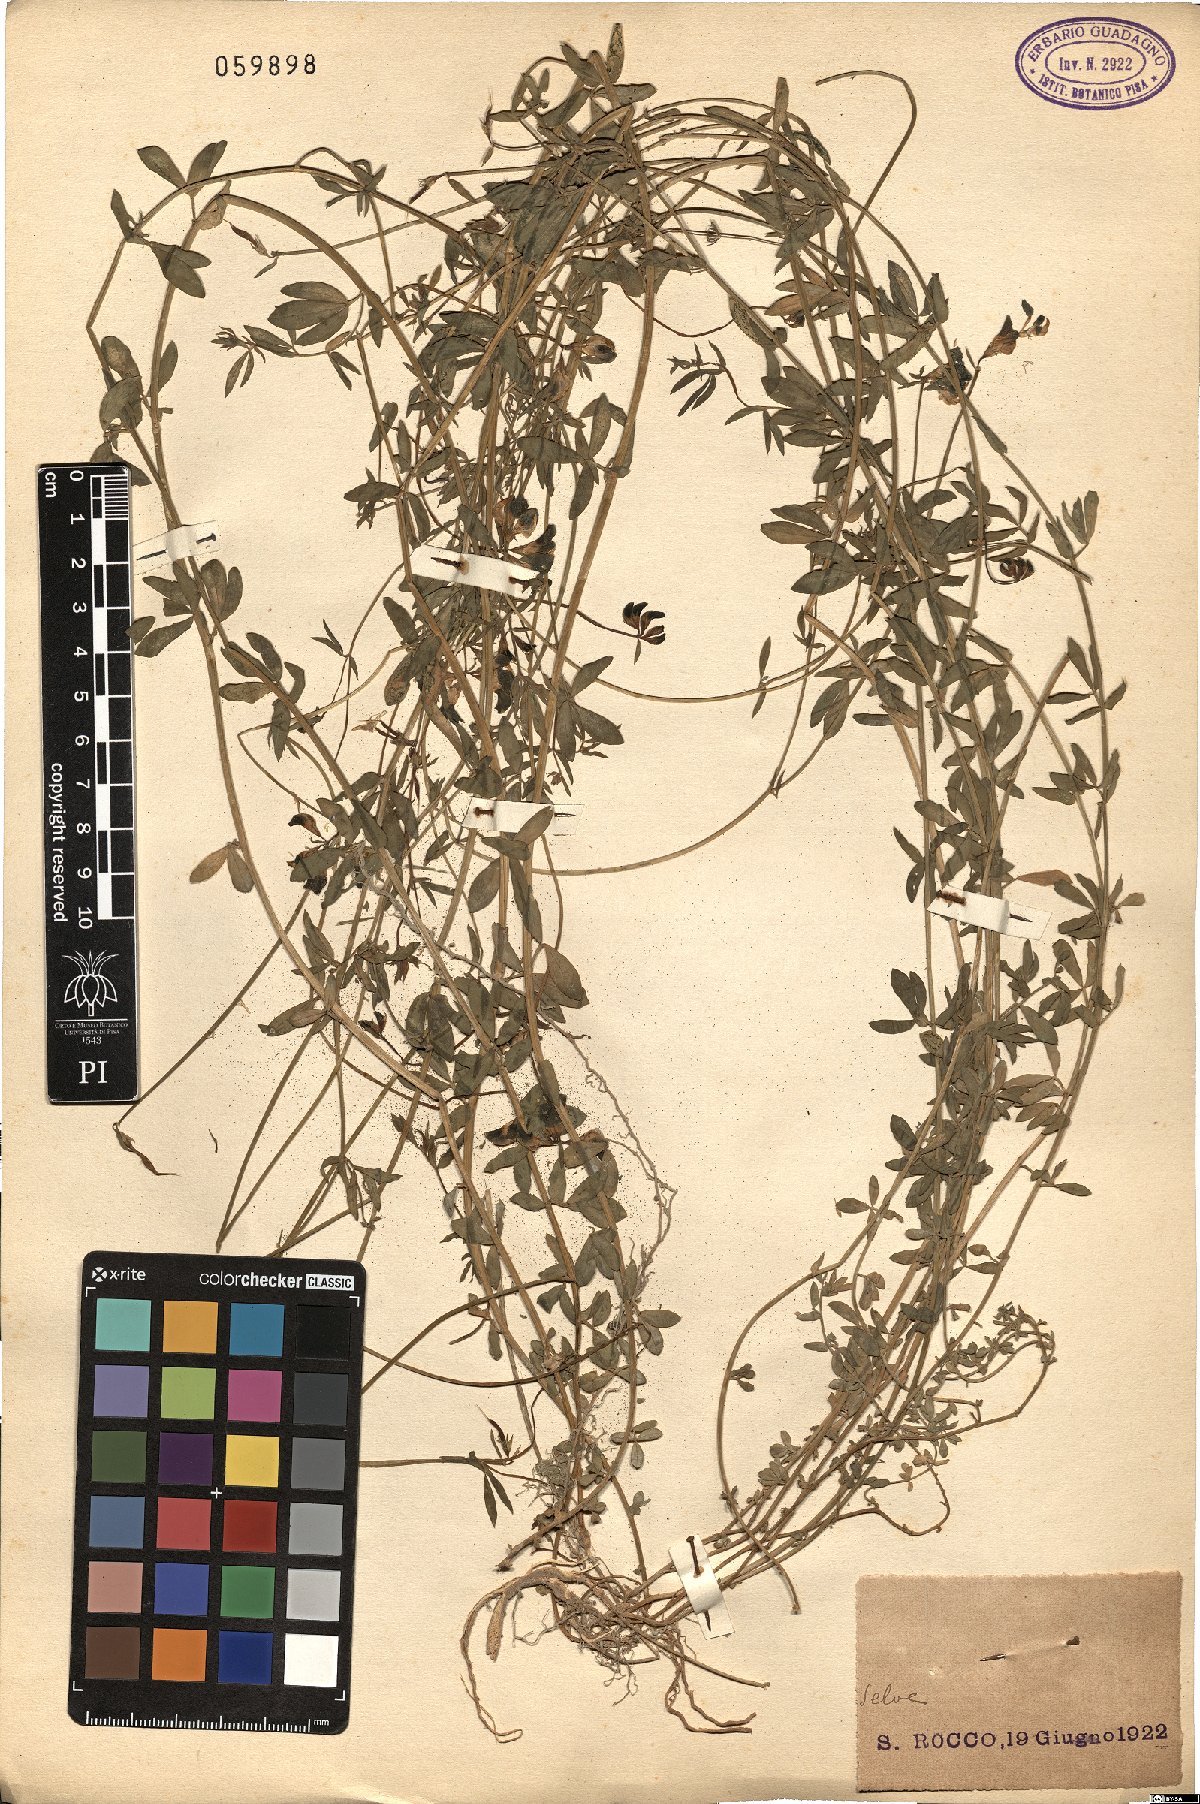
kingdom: Plantae
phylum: Tracheophyta
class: Magnoliopsida
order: Fabales
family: Fabaceae
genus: Lotus
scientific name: Lotus
